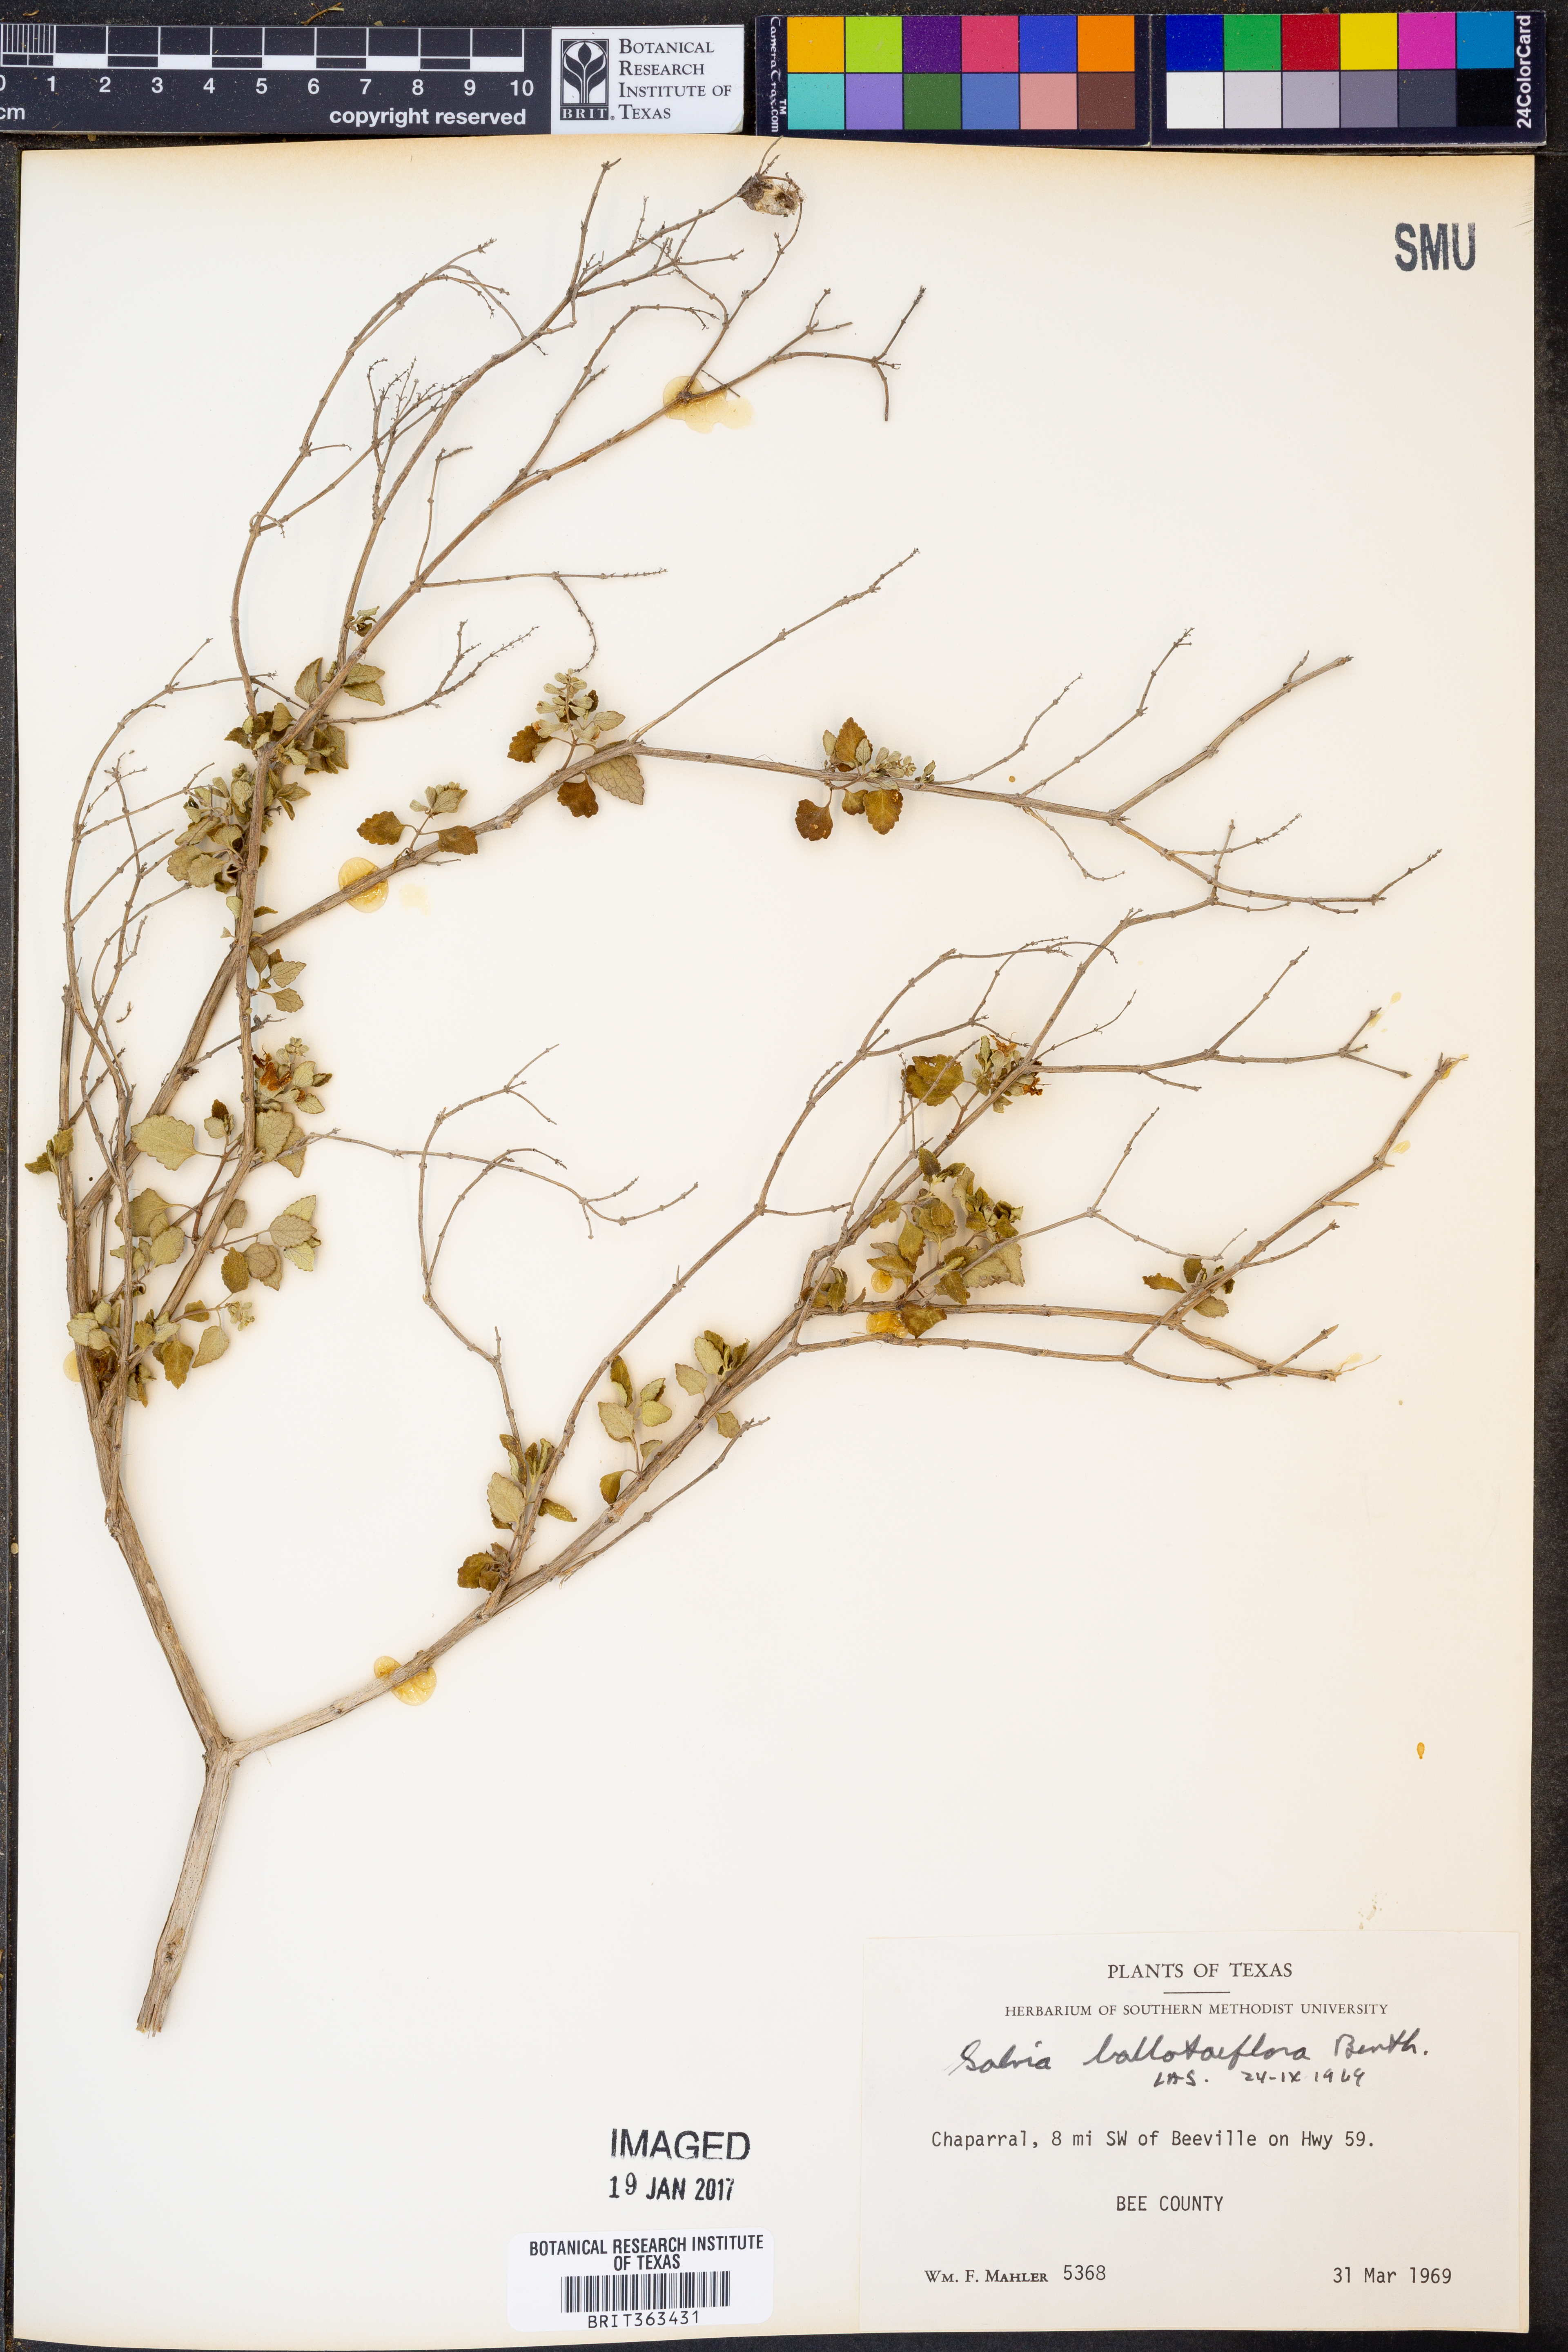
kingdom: Plantae
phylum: Tracheophyta
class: Magnoliopsida
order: Lamiales
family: Lamiaceae
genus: Salvia
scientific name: Salvia ballotiflora
